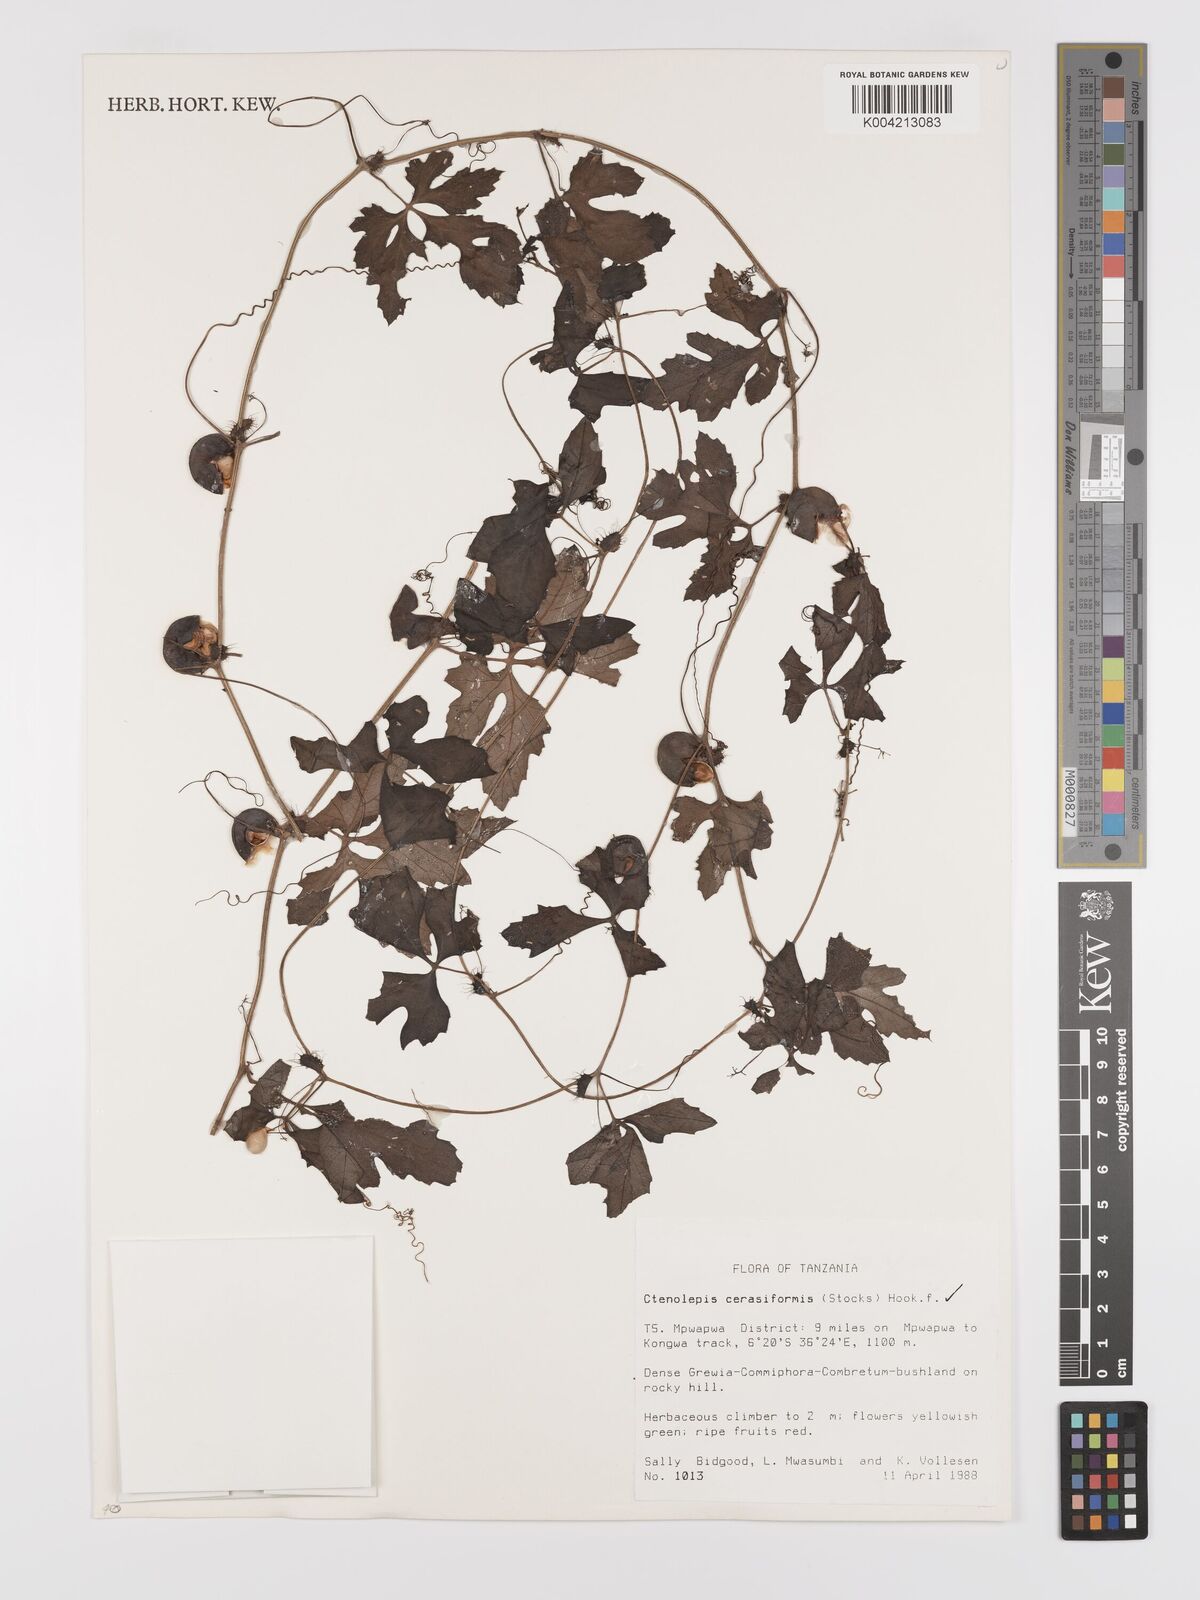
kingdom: Plantae
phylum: Tracheophyta
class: Magnoliopsida
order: Cucurbitales
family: Cucurbitaceae
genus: Blastania
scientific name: Blastania
